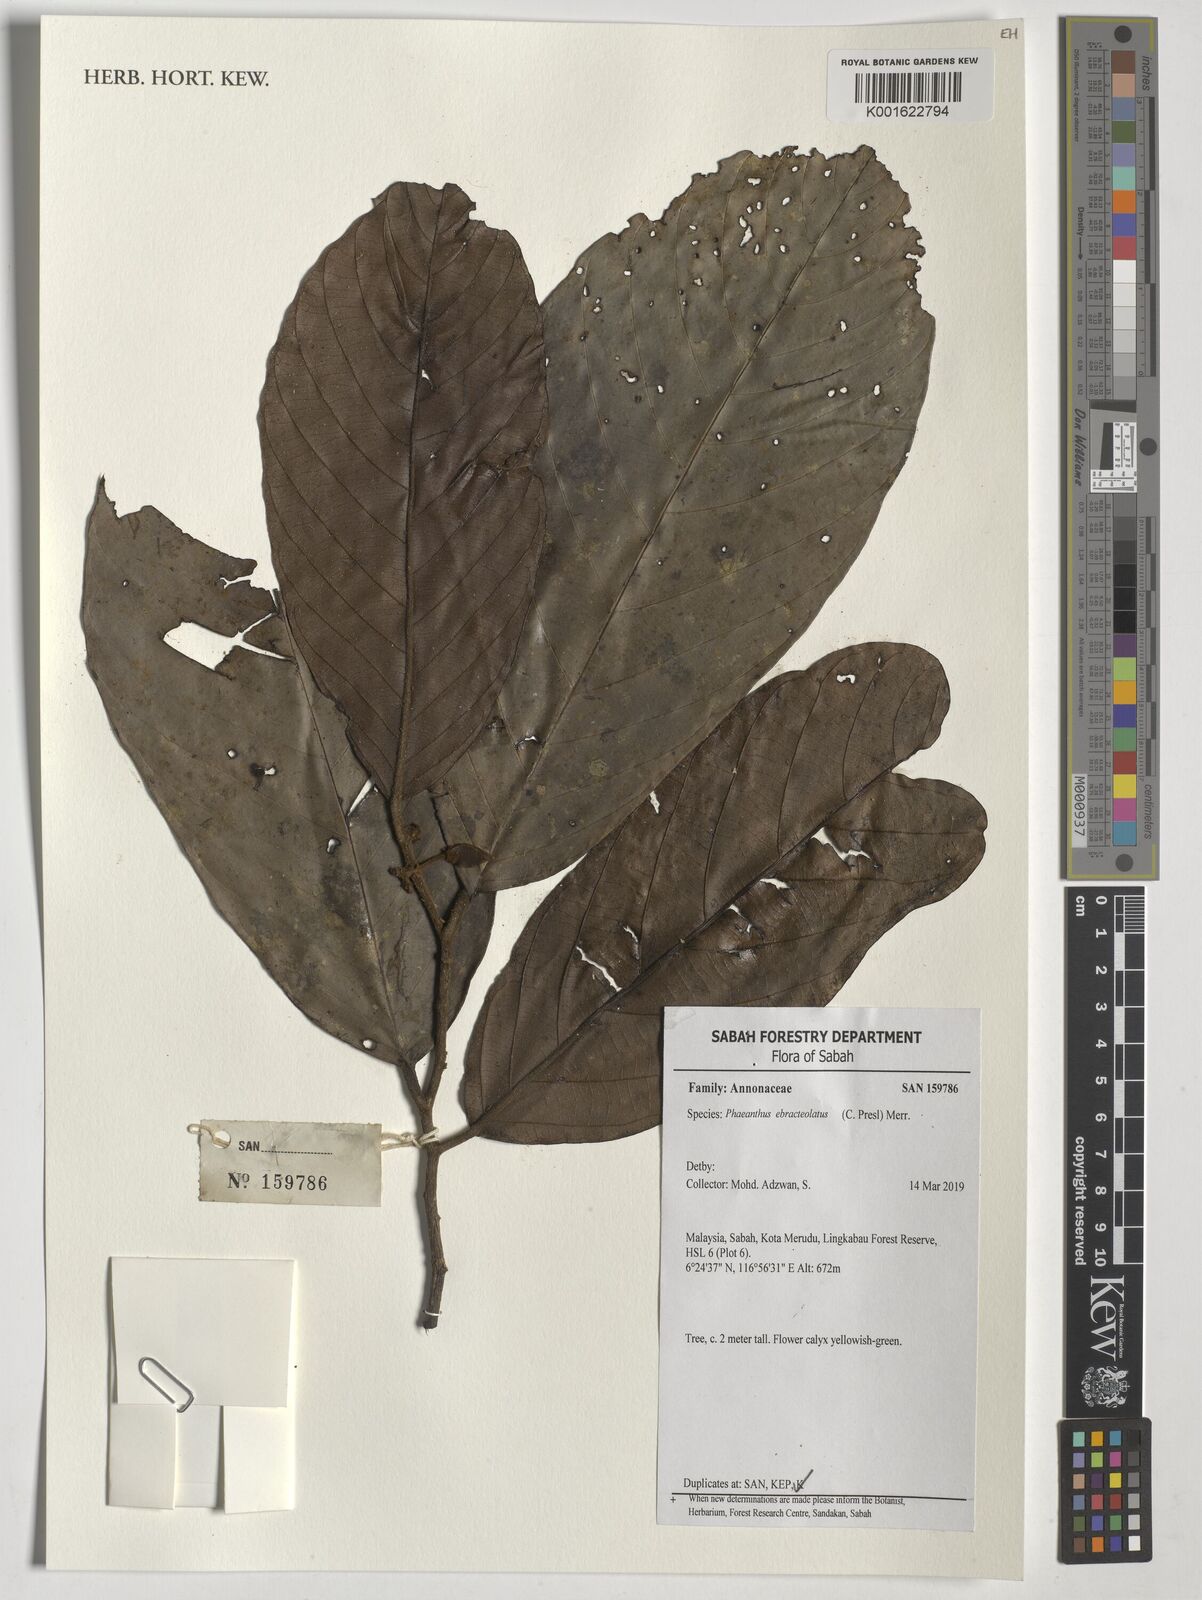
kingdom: Plantae
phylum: Tracheophyta
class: Magnoliopsida
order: Magnoliales
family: Annonaceae
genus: Phaeanthus
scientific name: Phaeanthus ophthalmicus
